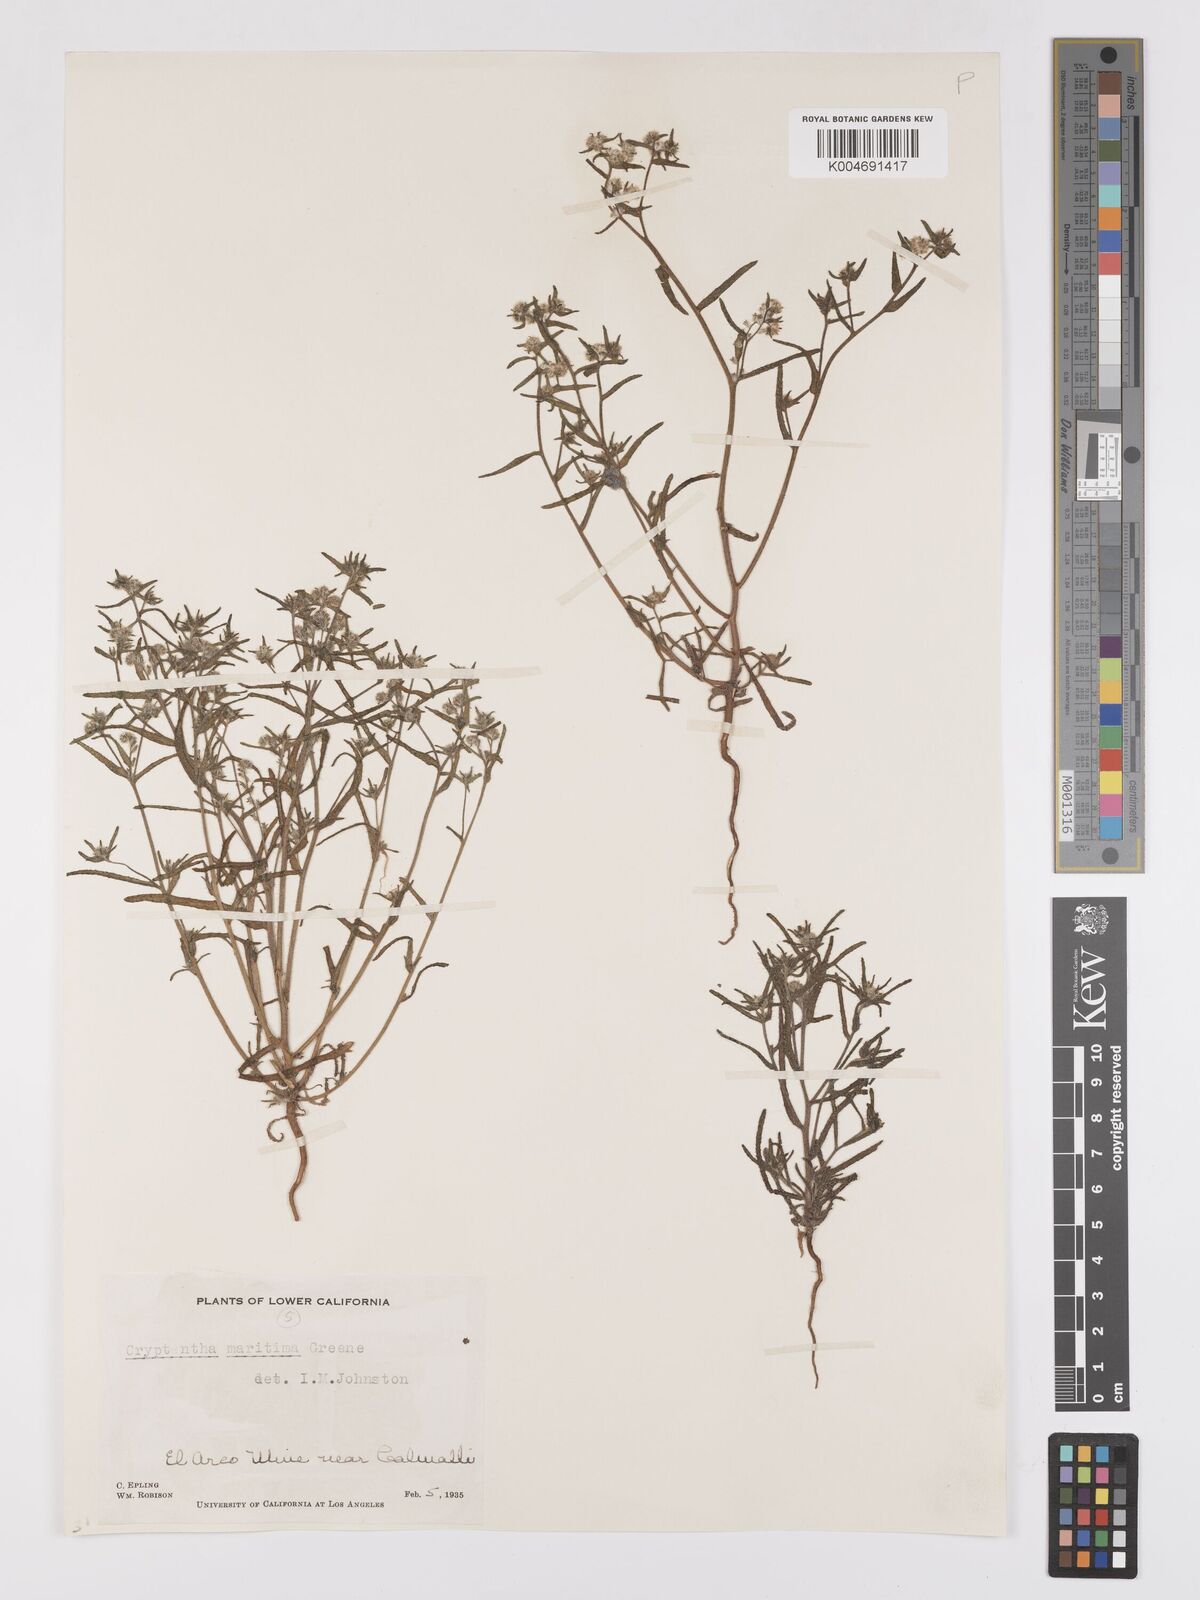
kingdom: Plantae
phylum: Tracheophyta
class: Magnoliopsida
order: Boraginales
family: Boraginaceae
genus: Cryptantha
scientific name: Cryptantha maritima
